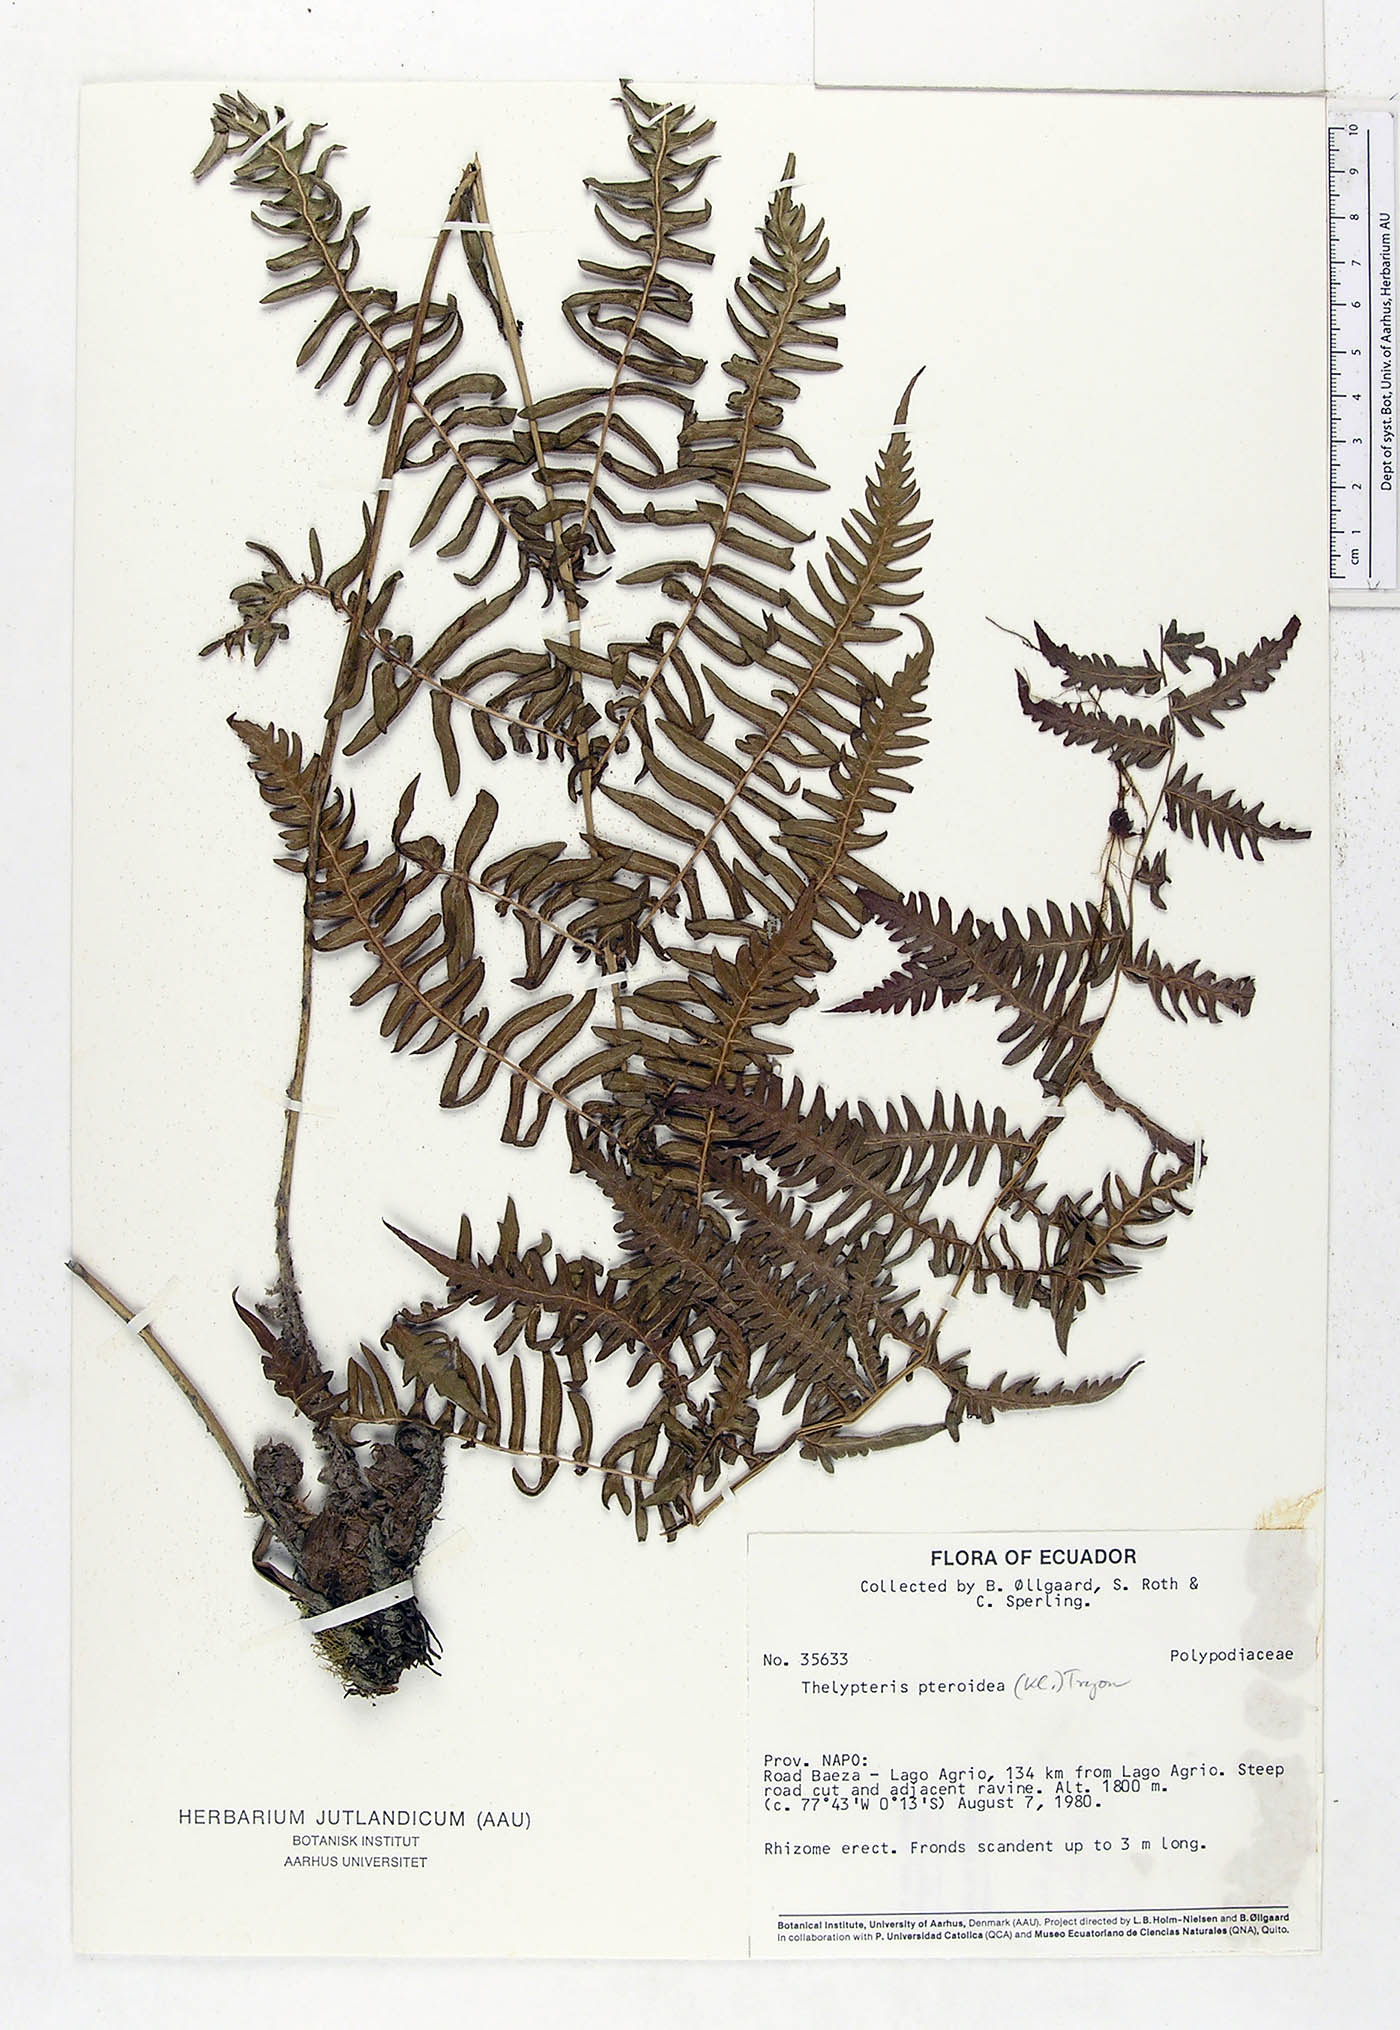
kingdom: Plantae
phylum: Tracheophyta
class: Polypodiopsida
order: Polypodiales
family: Thelypteridaceae
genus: Amauropelta
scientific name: Amauropelta pteroidea
